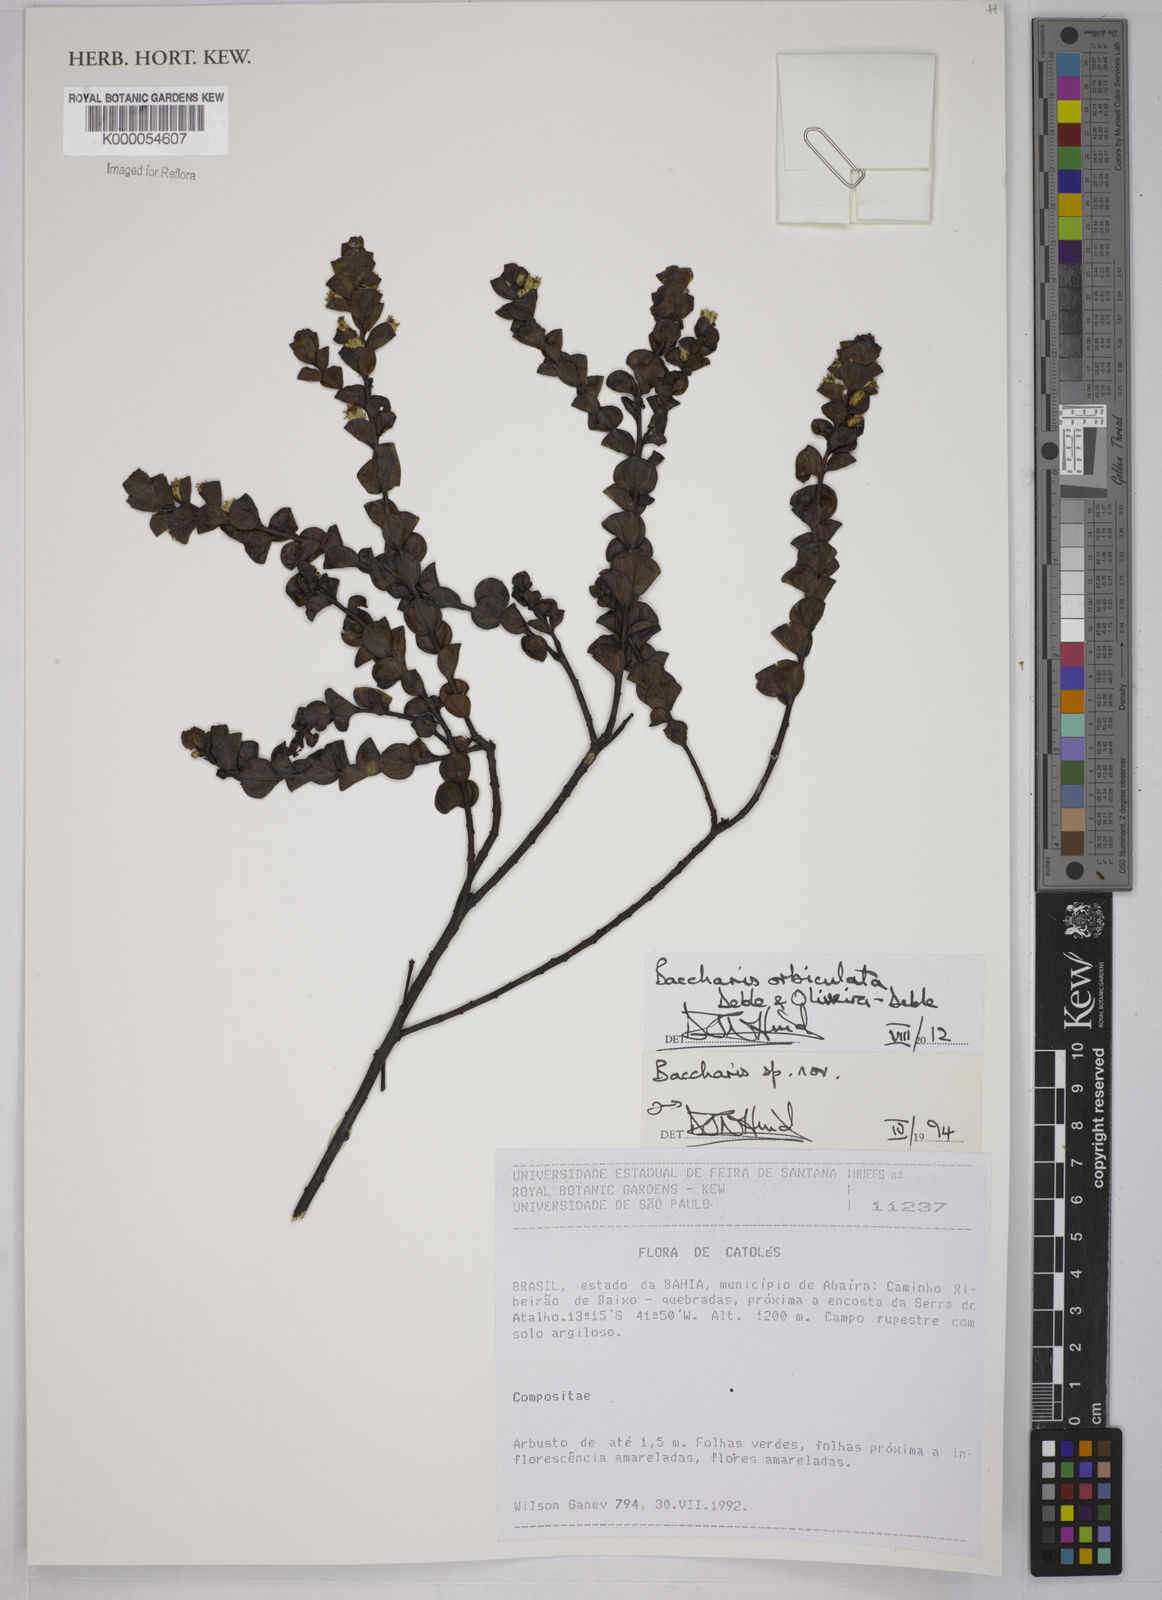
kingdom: Plantae
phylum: Tracheophyta
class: Magnoliopsida
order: Asterales
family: Asteraceae
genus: Baccharis
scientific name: Baccharis
